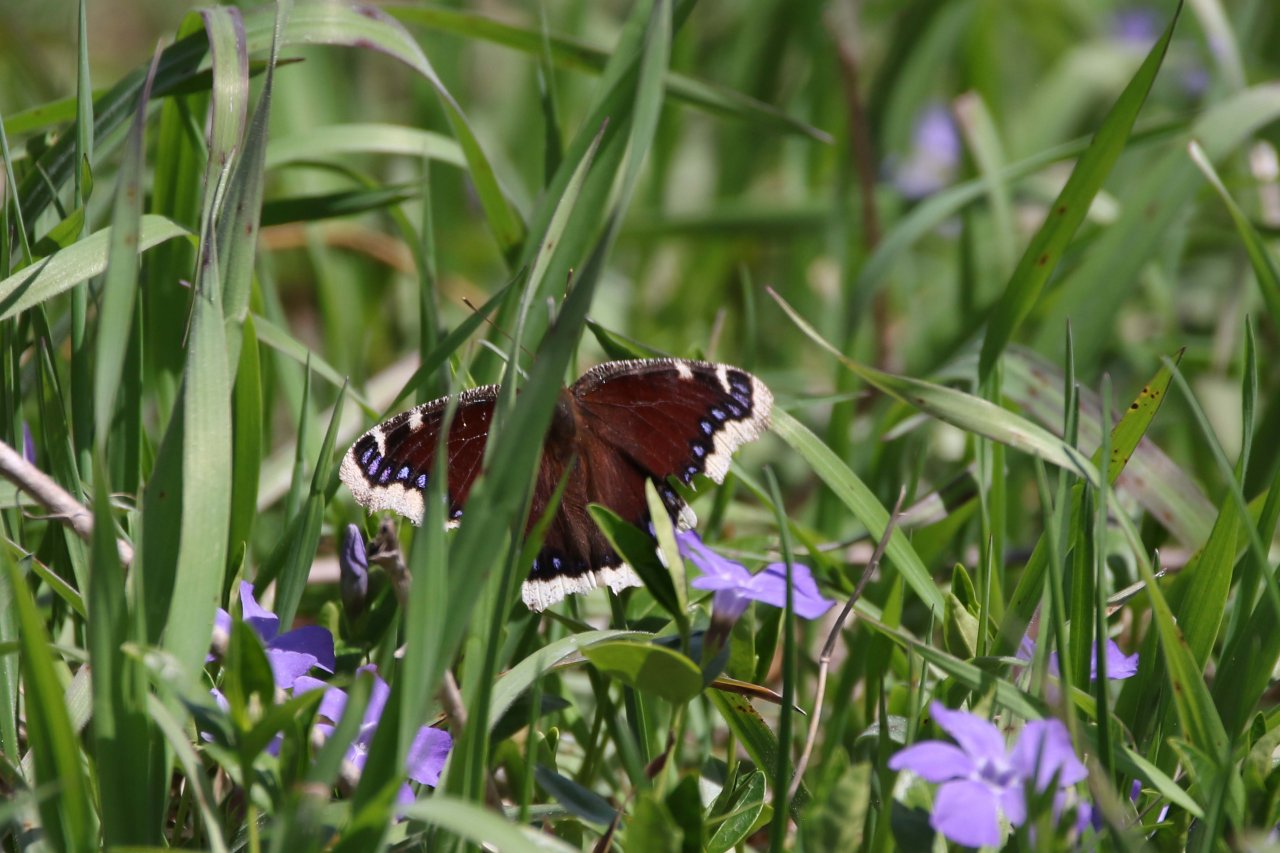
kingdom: Animalia
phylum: Arthropoda
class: Insecta
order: Lepidoptera
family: Nymphalidae
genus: Nymphalis
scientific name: Nymphalis antiopa
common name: Mourning Cloak
